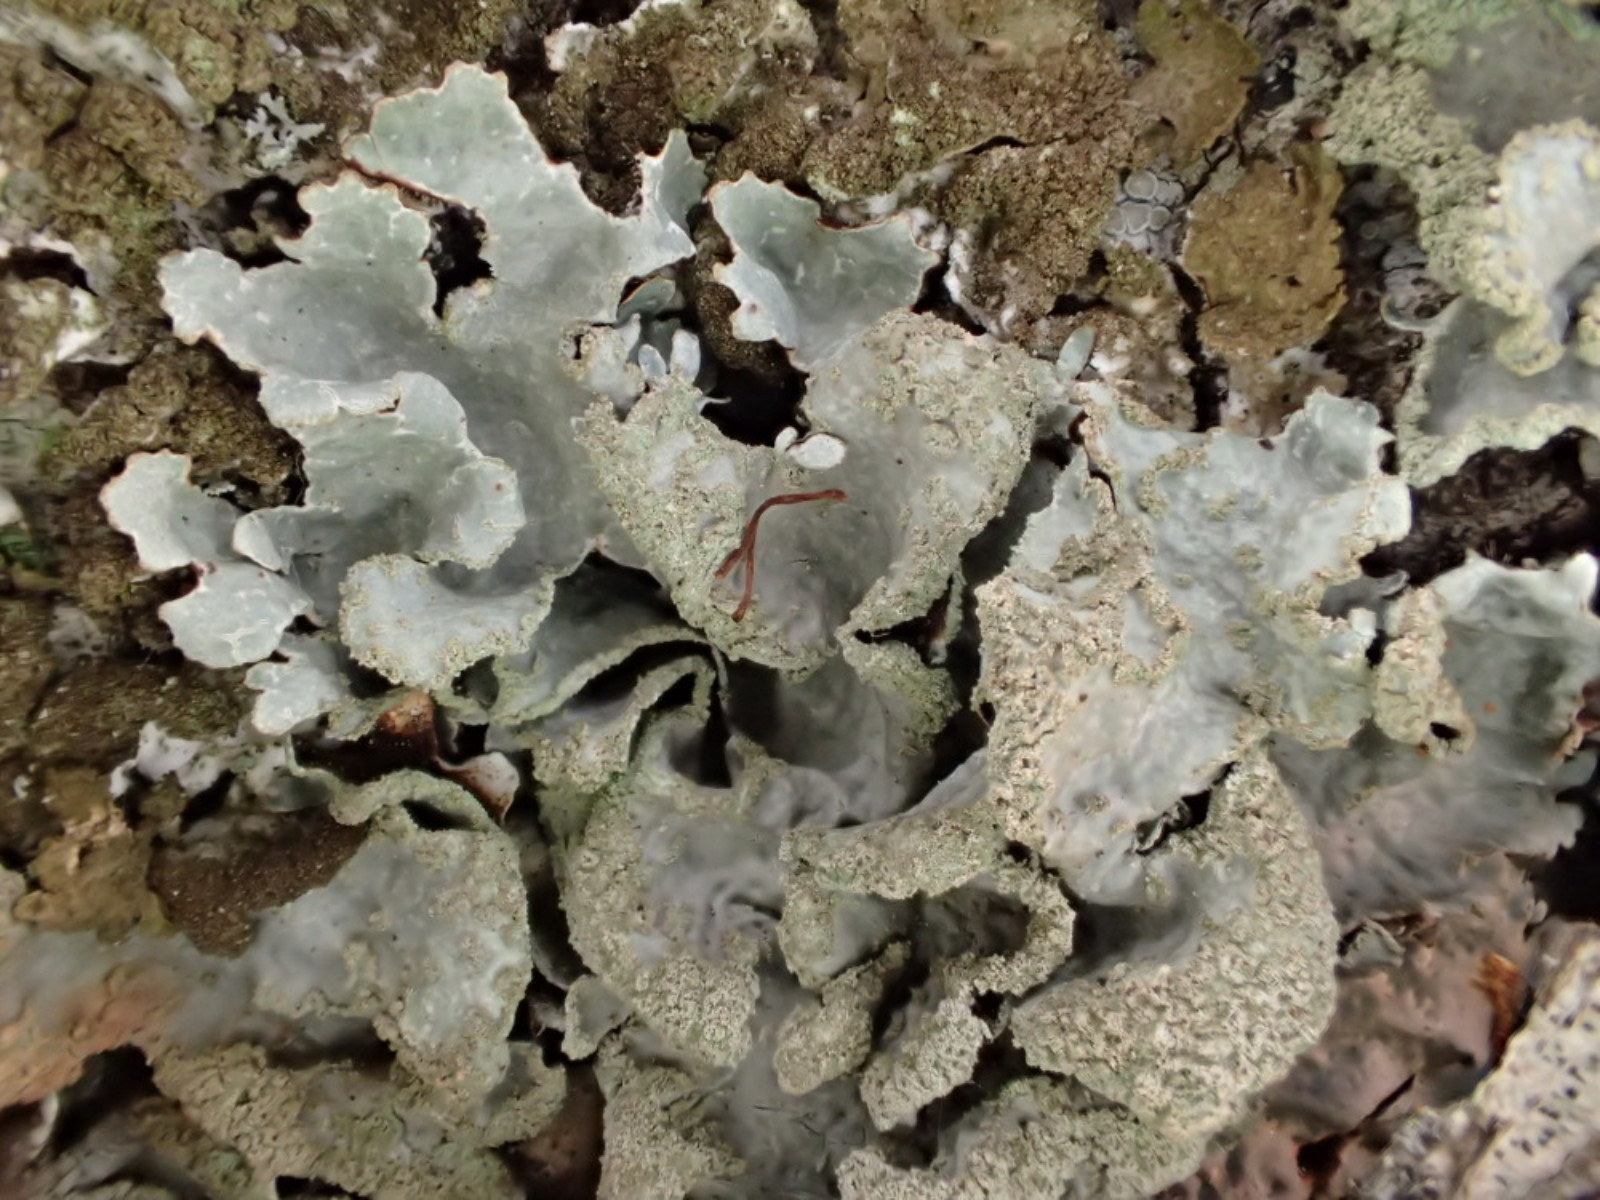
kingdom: Fungi
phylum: Ascomycota
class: Lecanoromycetes
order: Lecanorales
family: Parmeliaceae
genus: Parmelia
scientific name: Parmelia sulcata
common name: rynket skållav
